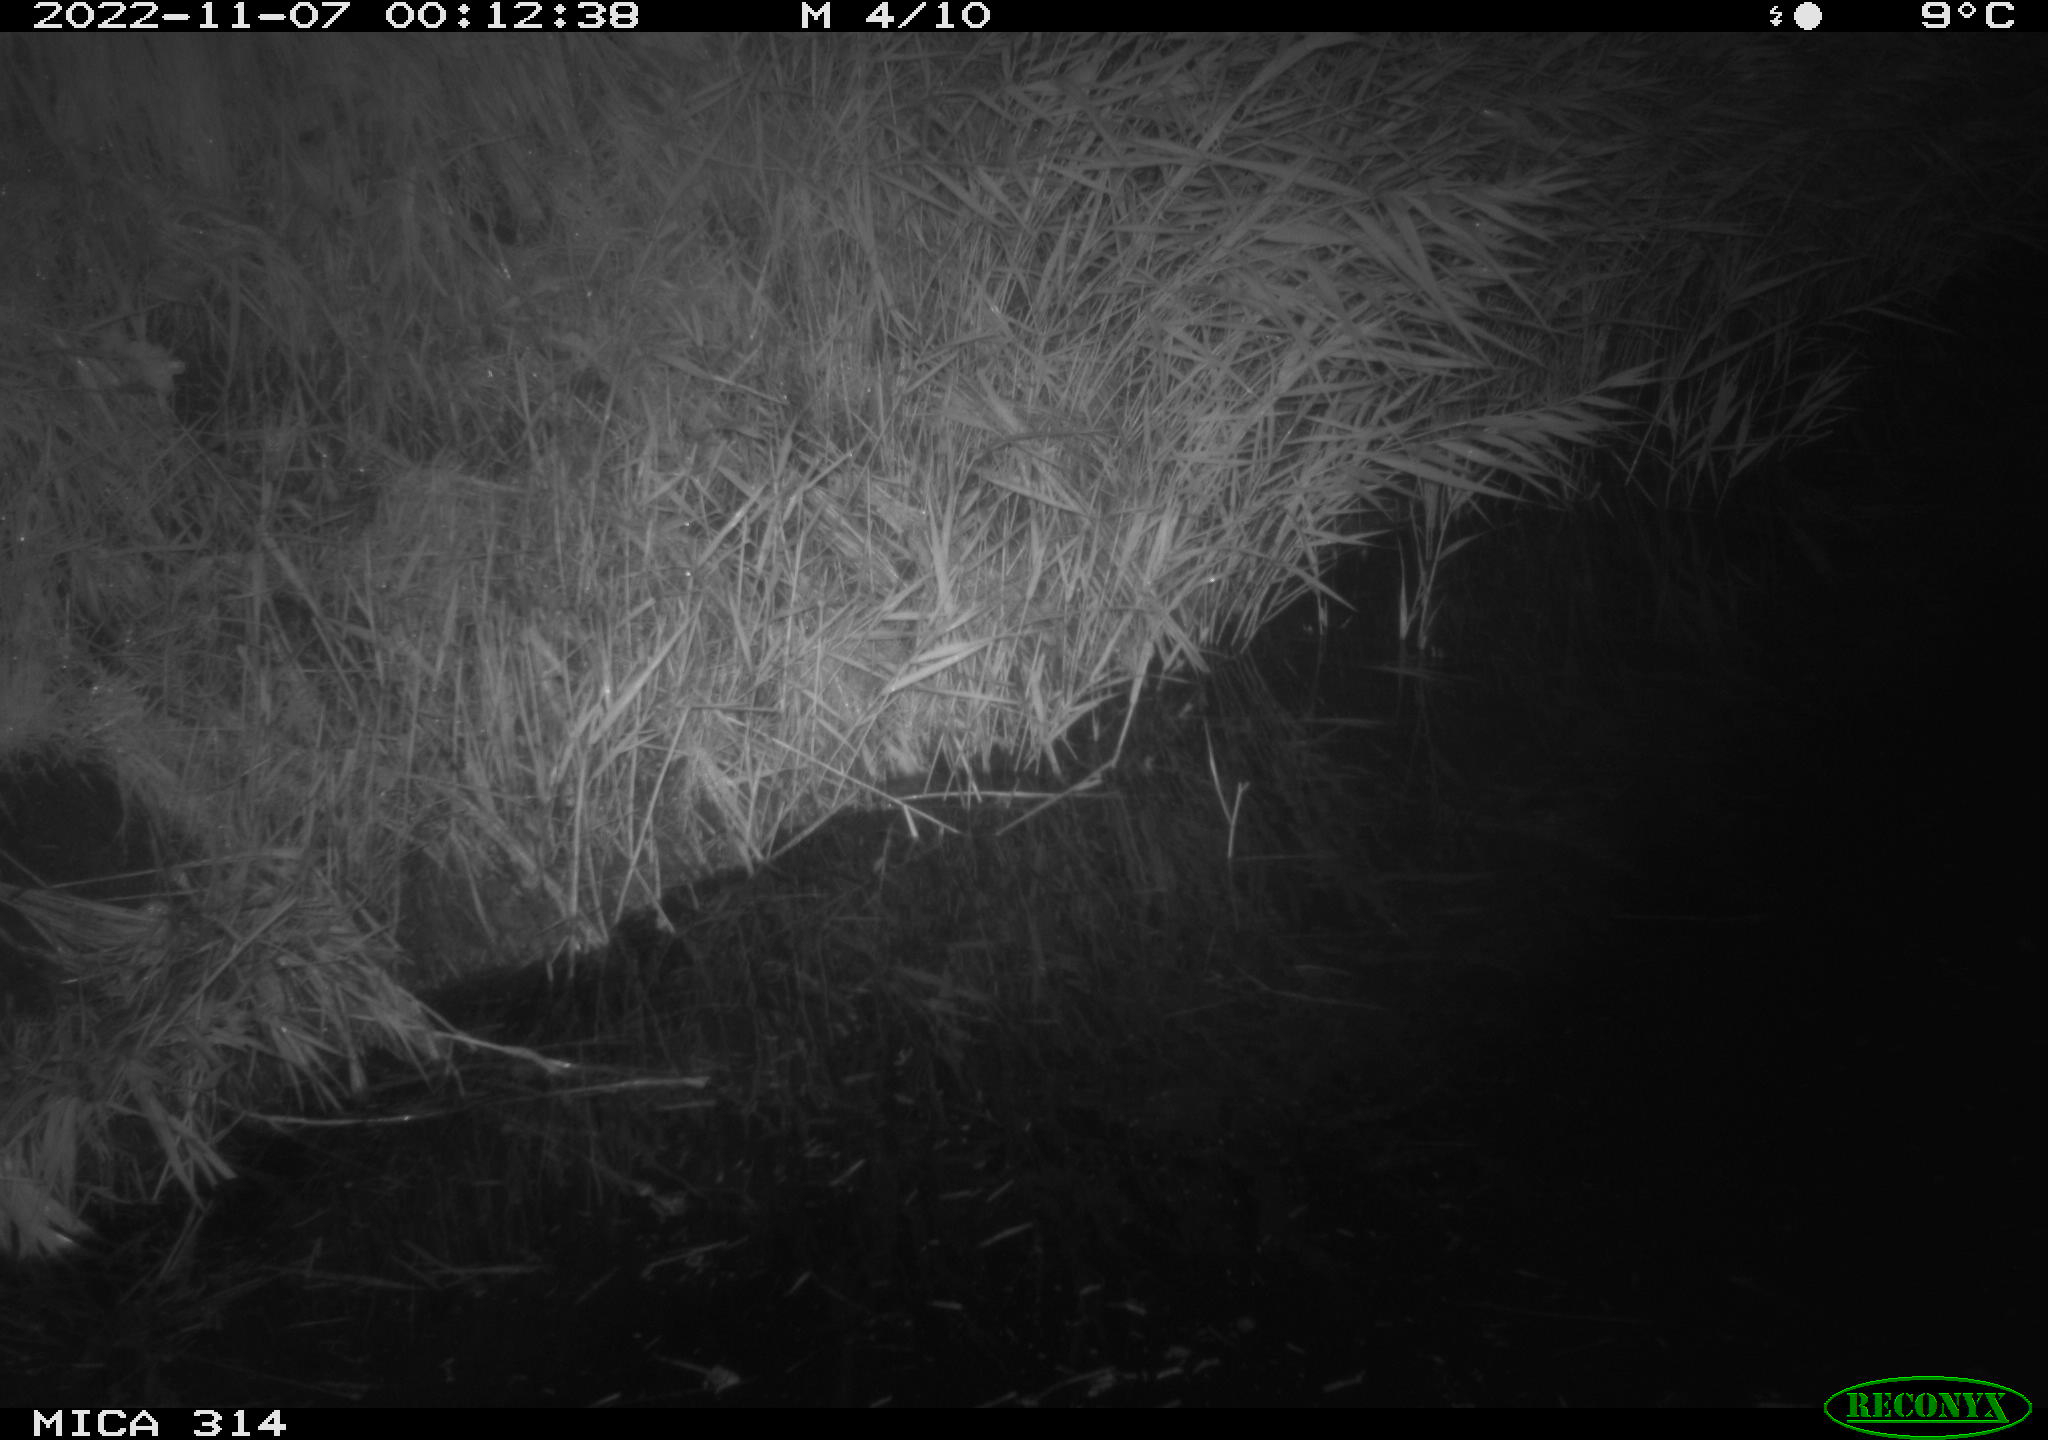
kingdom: Animalia
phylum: Chordata
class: Mammalia
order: Rodentia
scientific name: Rodentia
